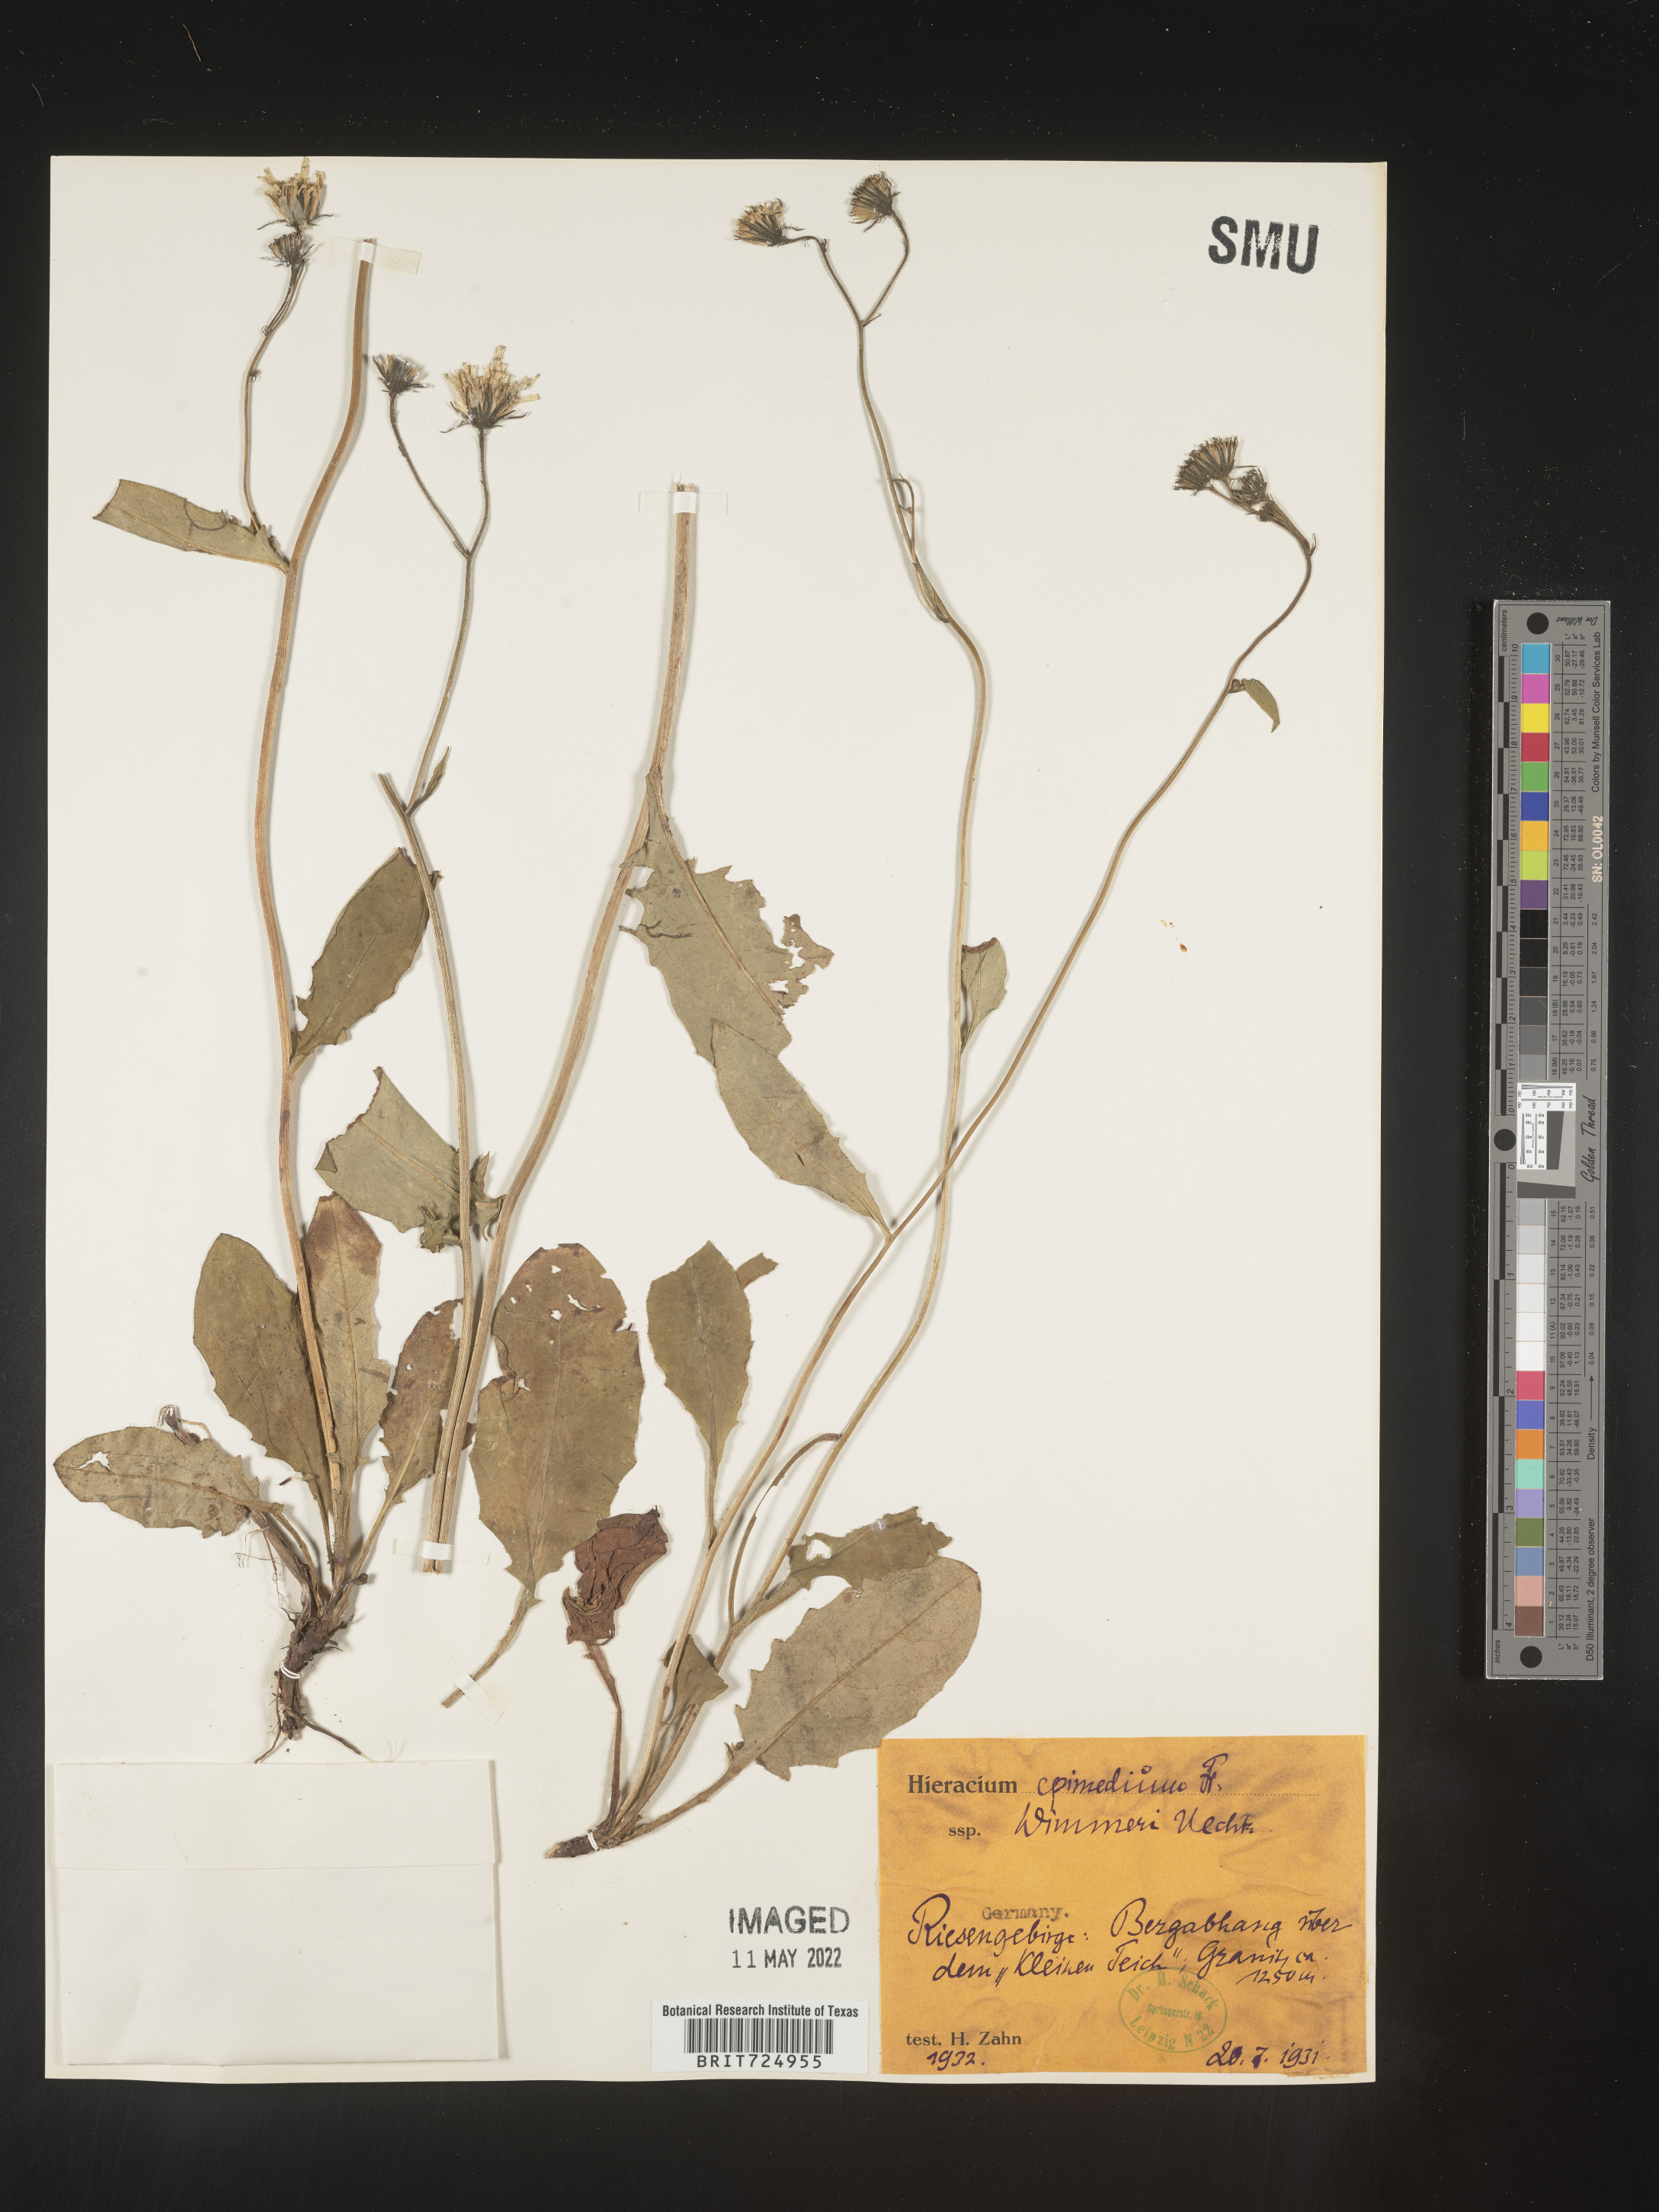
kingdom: Plantae
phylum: Tracheophyta
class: Magnoliopsida
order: Asterales
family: Asteraceae
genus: Hieracium
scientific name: Hieracium
